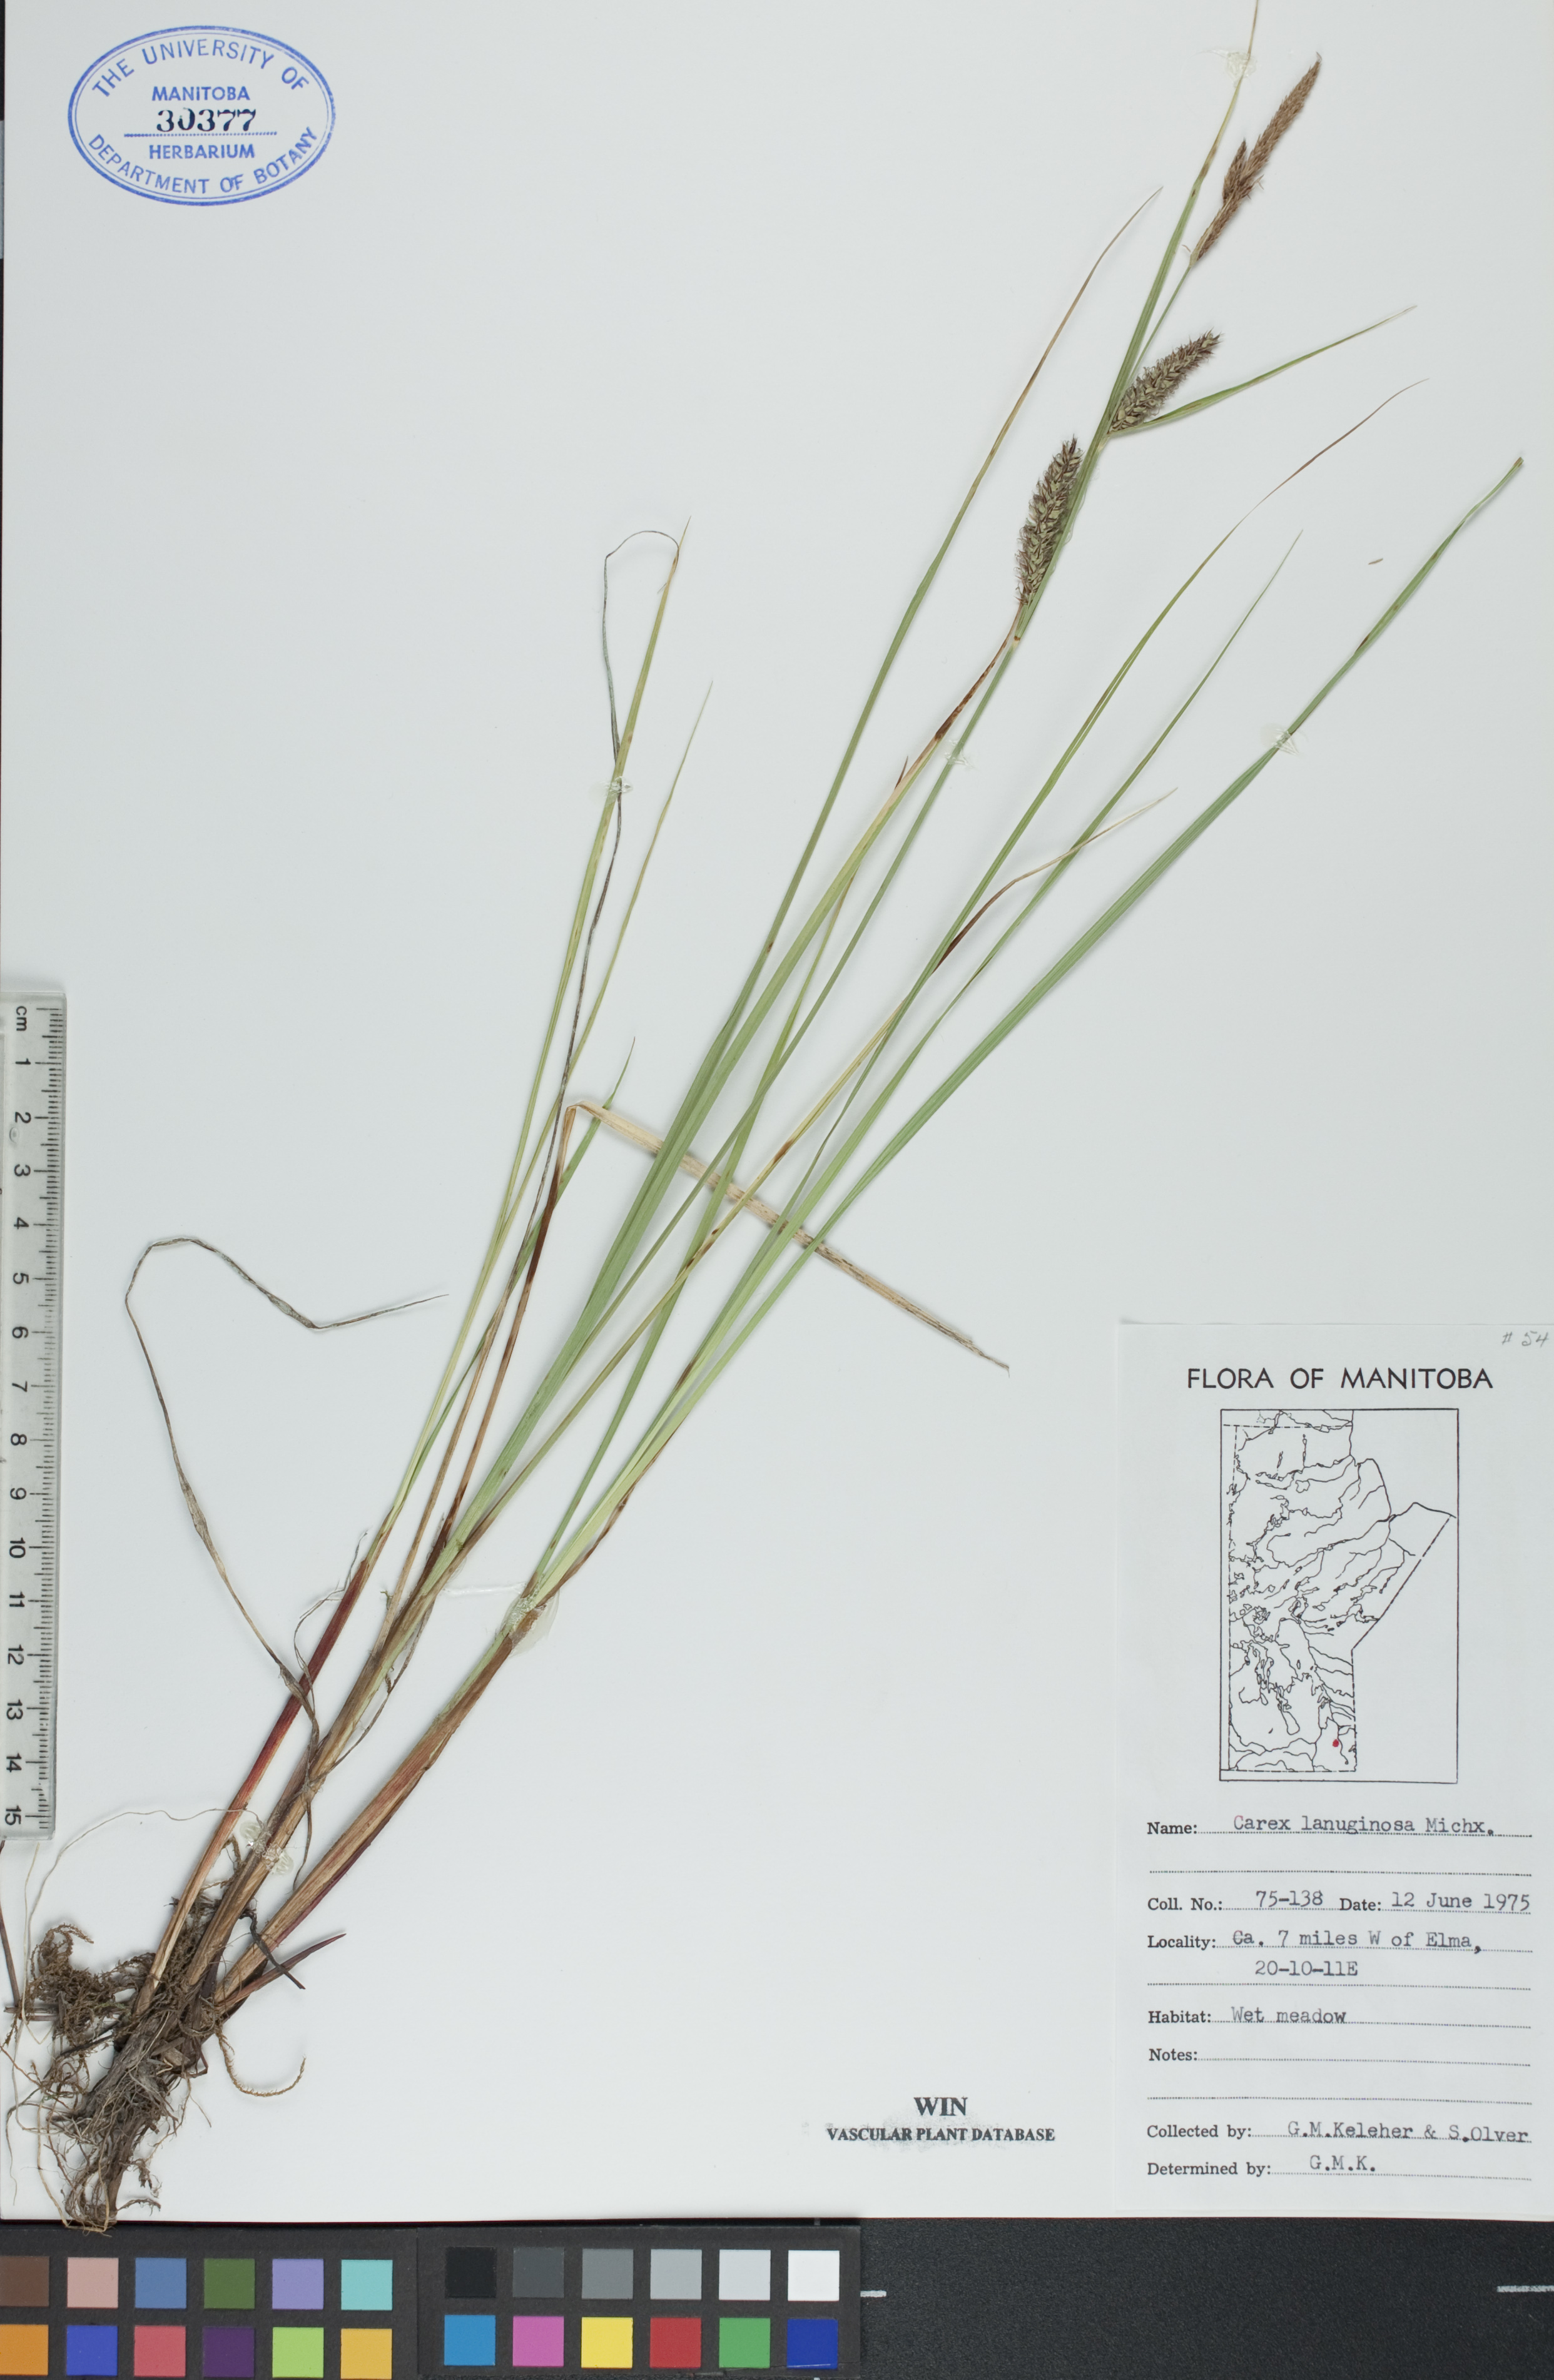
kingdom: Plantae
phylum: Tracheophyta
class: Liliopsida
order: Poales
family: Cyperaceae
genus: Carex
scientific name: Carex lasiocarpa
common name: Slender sedge
